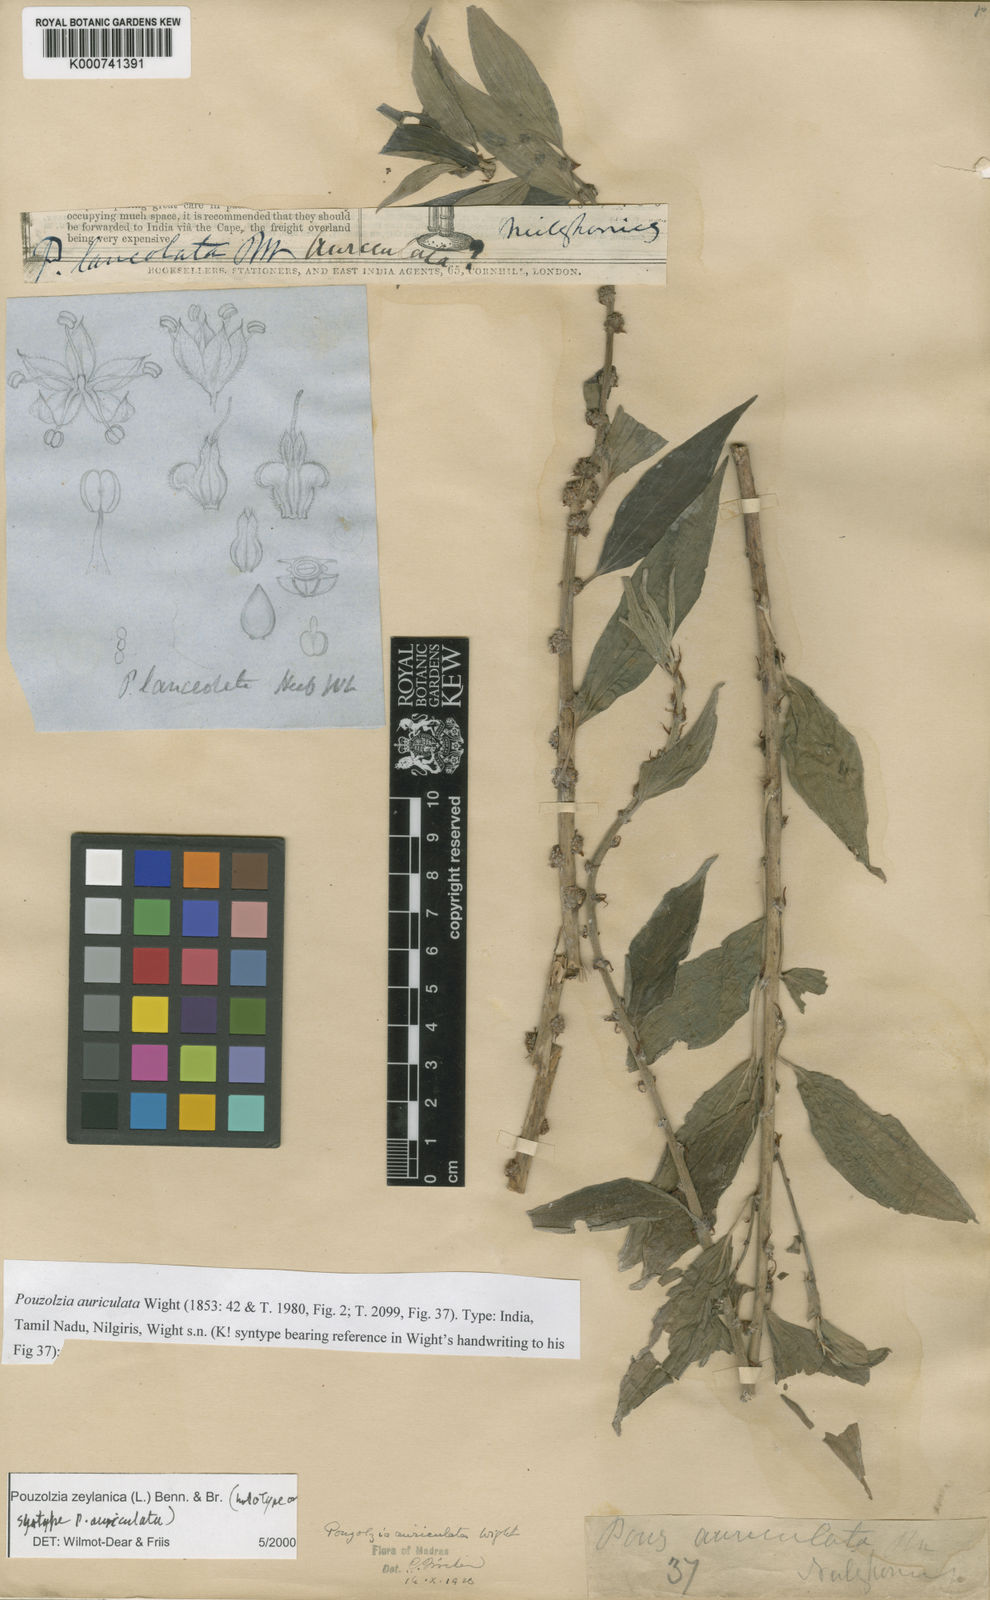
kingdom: Plantae
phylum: Tracheophyta
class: Magnoliopsida
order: Rosales
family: Urticaceae
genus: Pouzolzia
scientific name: Pouzolzia zeylanica
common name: Graceful pouzolzsbush
